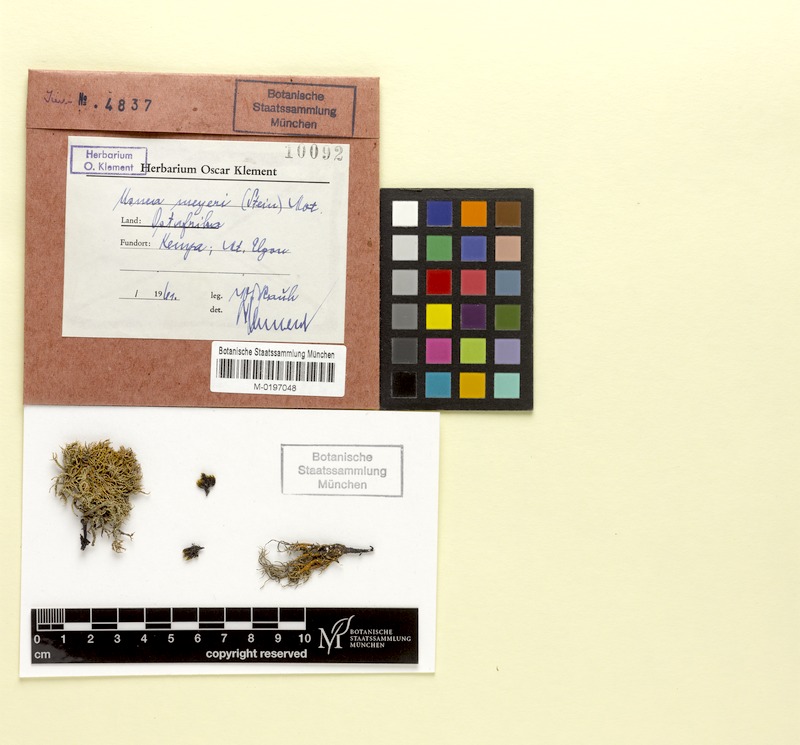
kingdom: Fungi
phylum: Ascomycota
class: Lecanoromycetes
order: Lecanorales
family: Parmeliaceae
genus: Usnea
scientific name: Usnea
